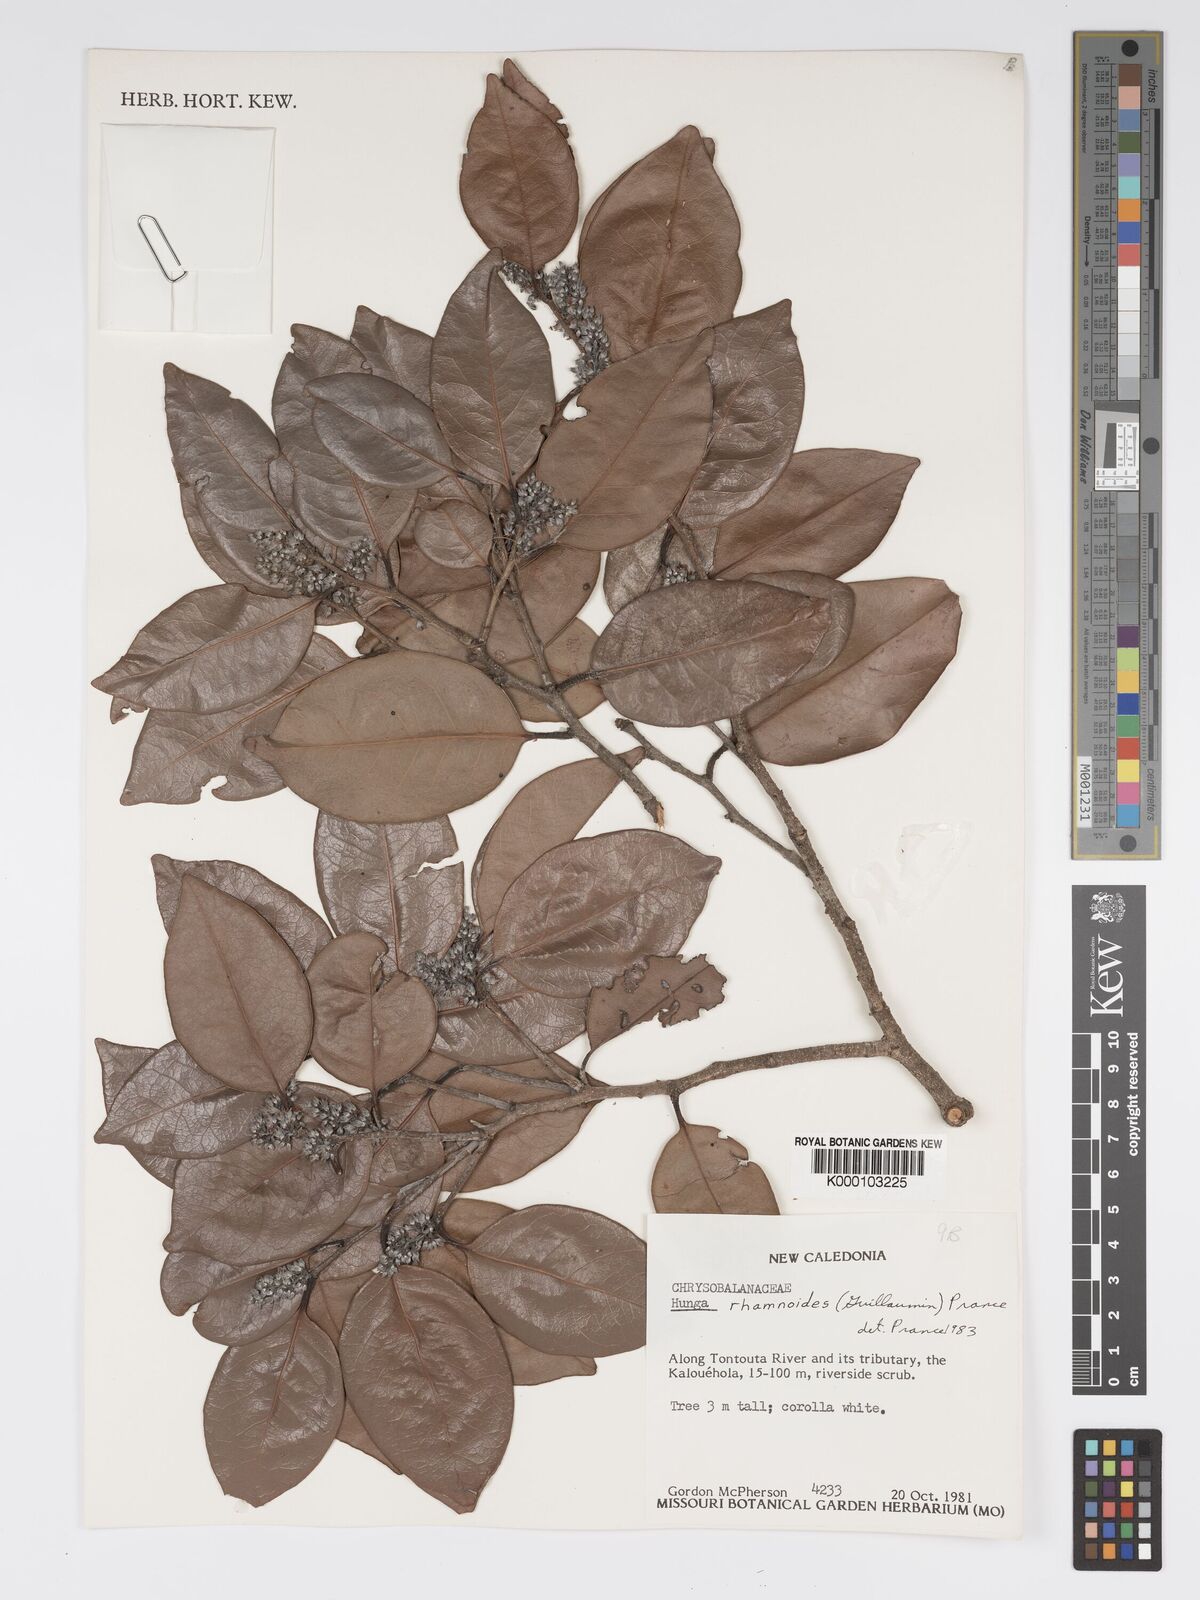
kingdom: Plantae
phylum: Tracheophyta
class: Magnoliopsida
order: Malpighiales
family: Chrysobalanaceae
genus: Hunga
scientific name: Hunga rhamnoides
